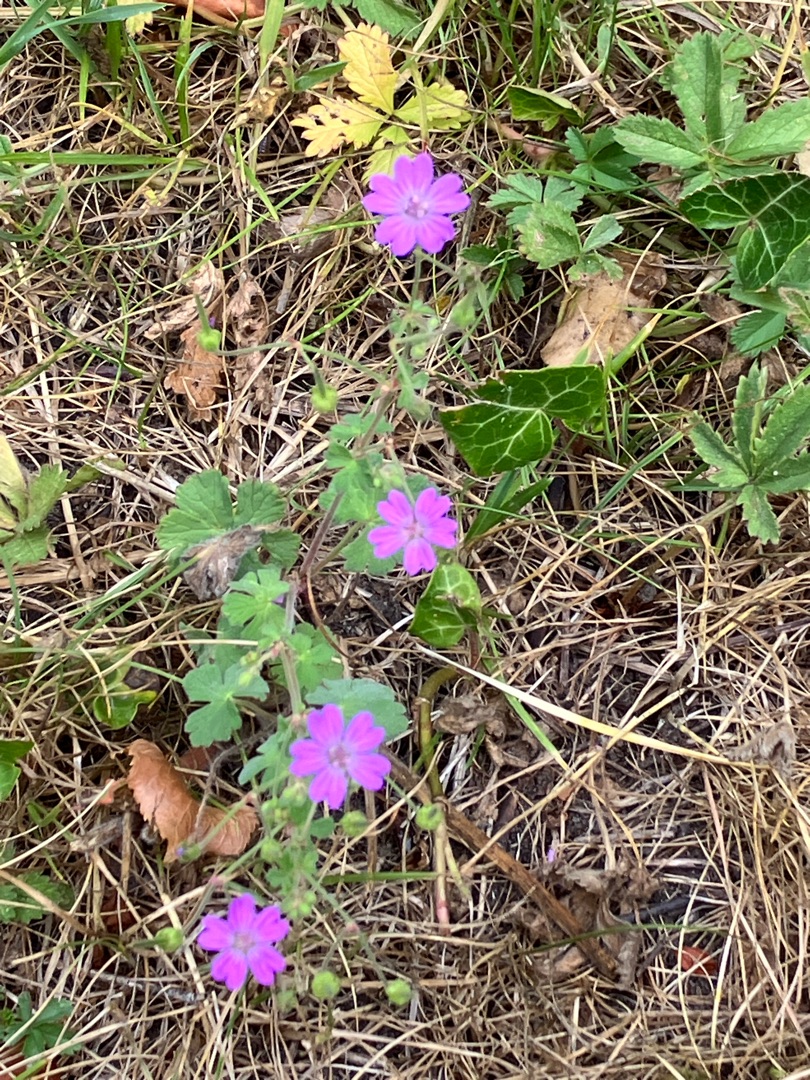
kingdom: Plantae
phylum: Tracheophyta
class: Magnoliopsida
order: Geraniales
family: Geraniaceae
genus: Geranium
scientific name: Geranium pyrenaicum
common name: Pyrenæisk storkenæb
